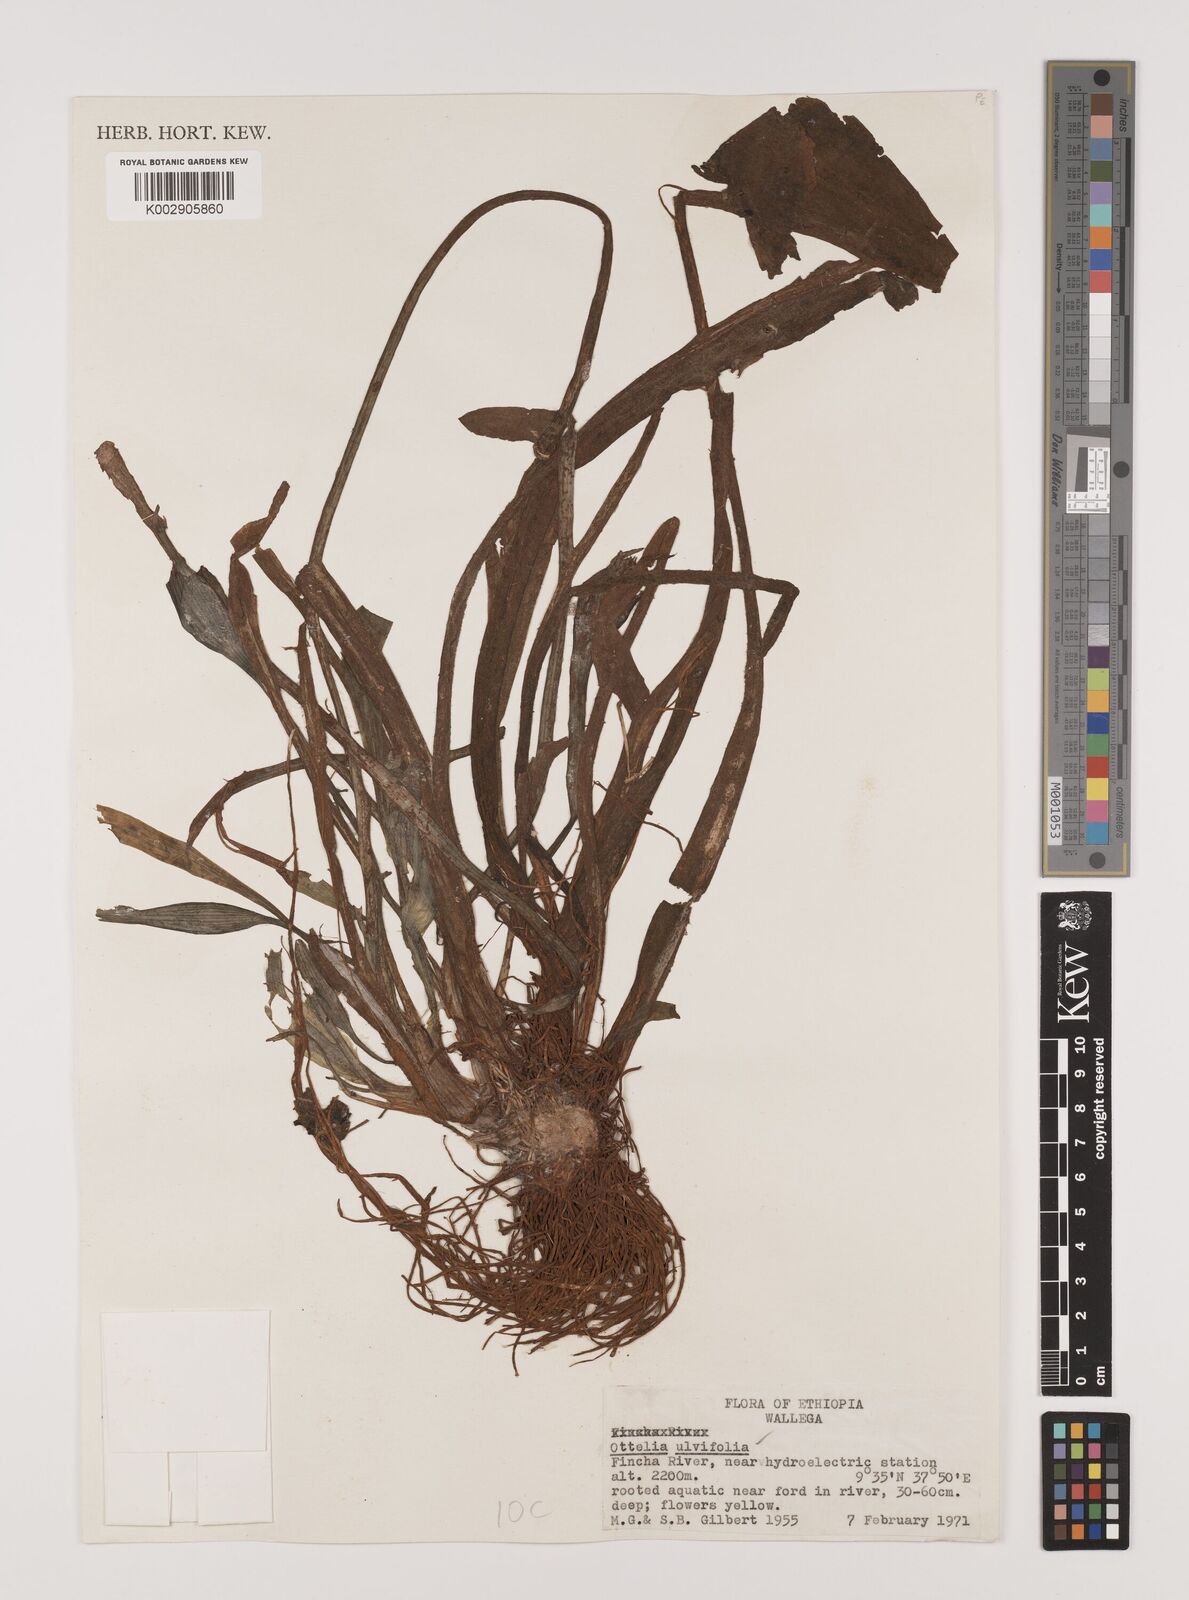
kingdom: Plantae
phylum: Tracheophyta
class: Liliopsida
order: Alismatales
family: Hydrocharitaceae
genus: Ottelia
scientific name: Ottelia ulvifolia
